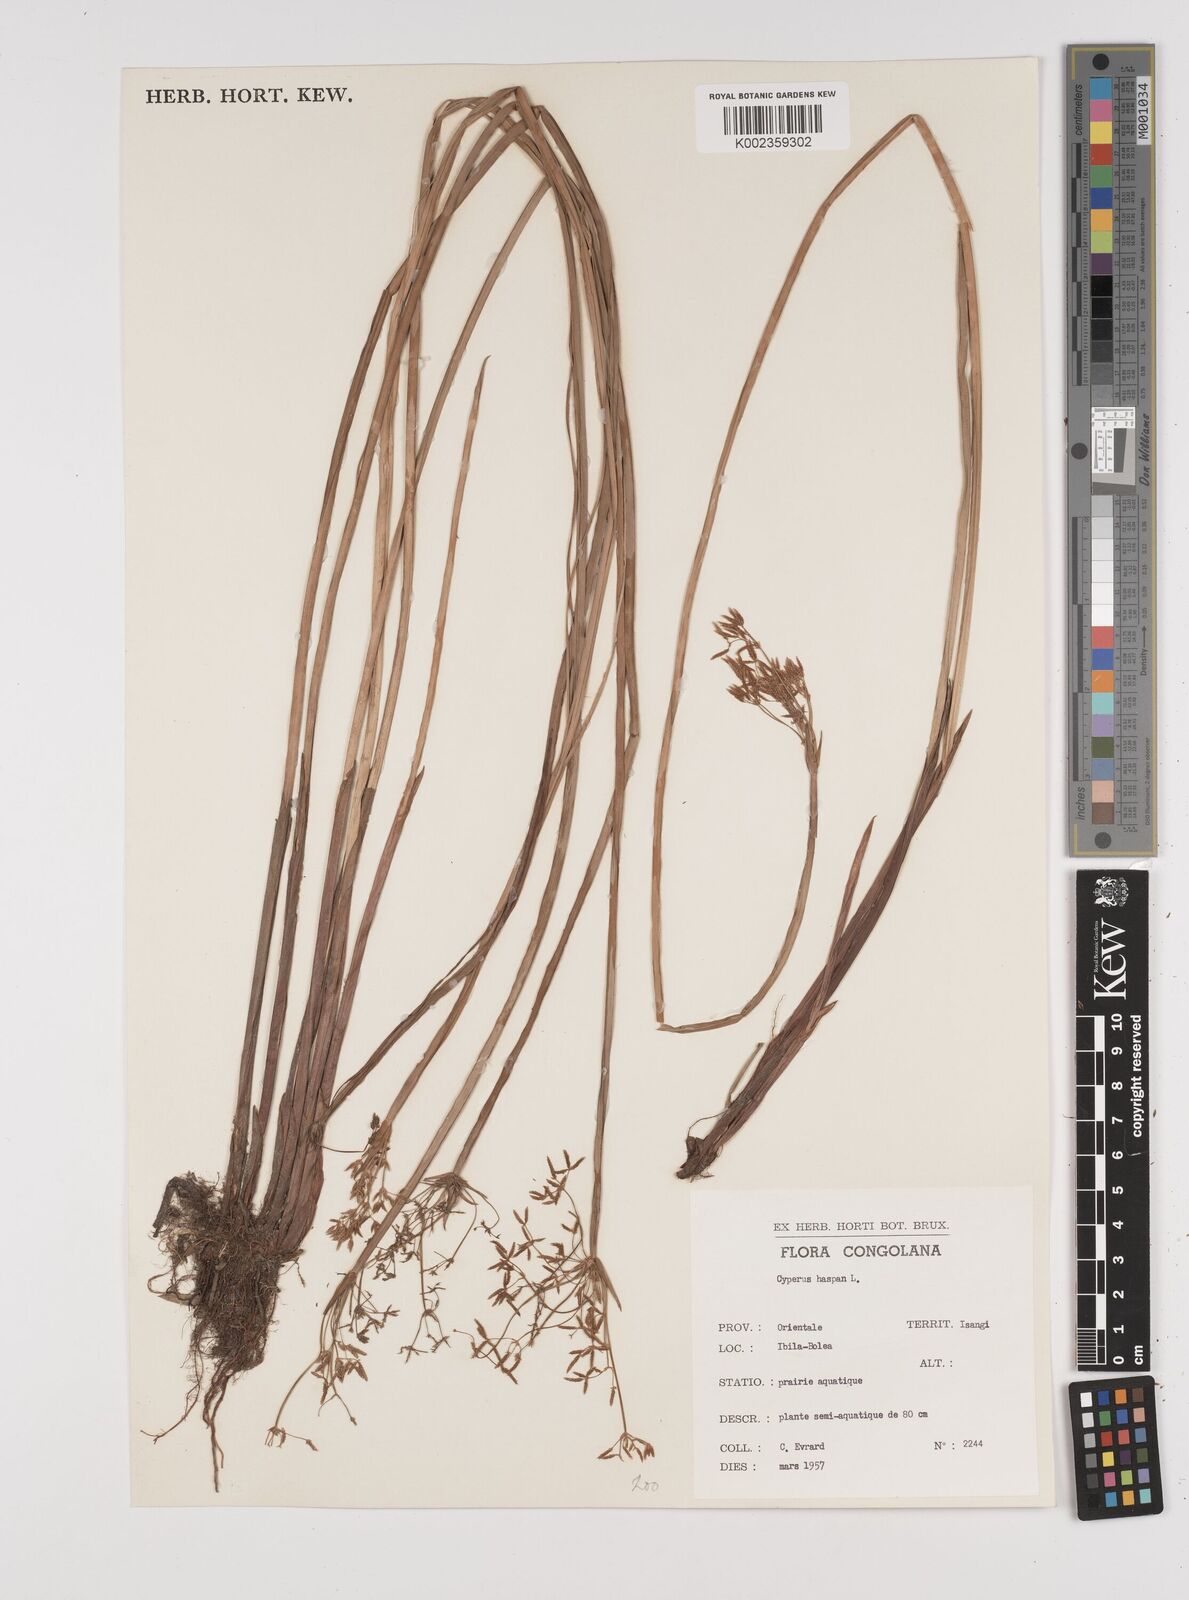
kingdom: Plantae
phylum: Tracheophyta
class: Liliopsida
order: Poales
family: Cyperaceae
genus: Cyperus
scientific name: Cyperus haspan
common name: Haspan flatsedge
